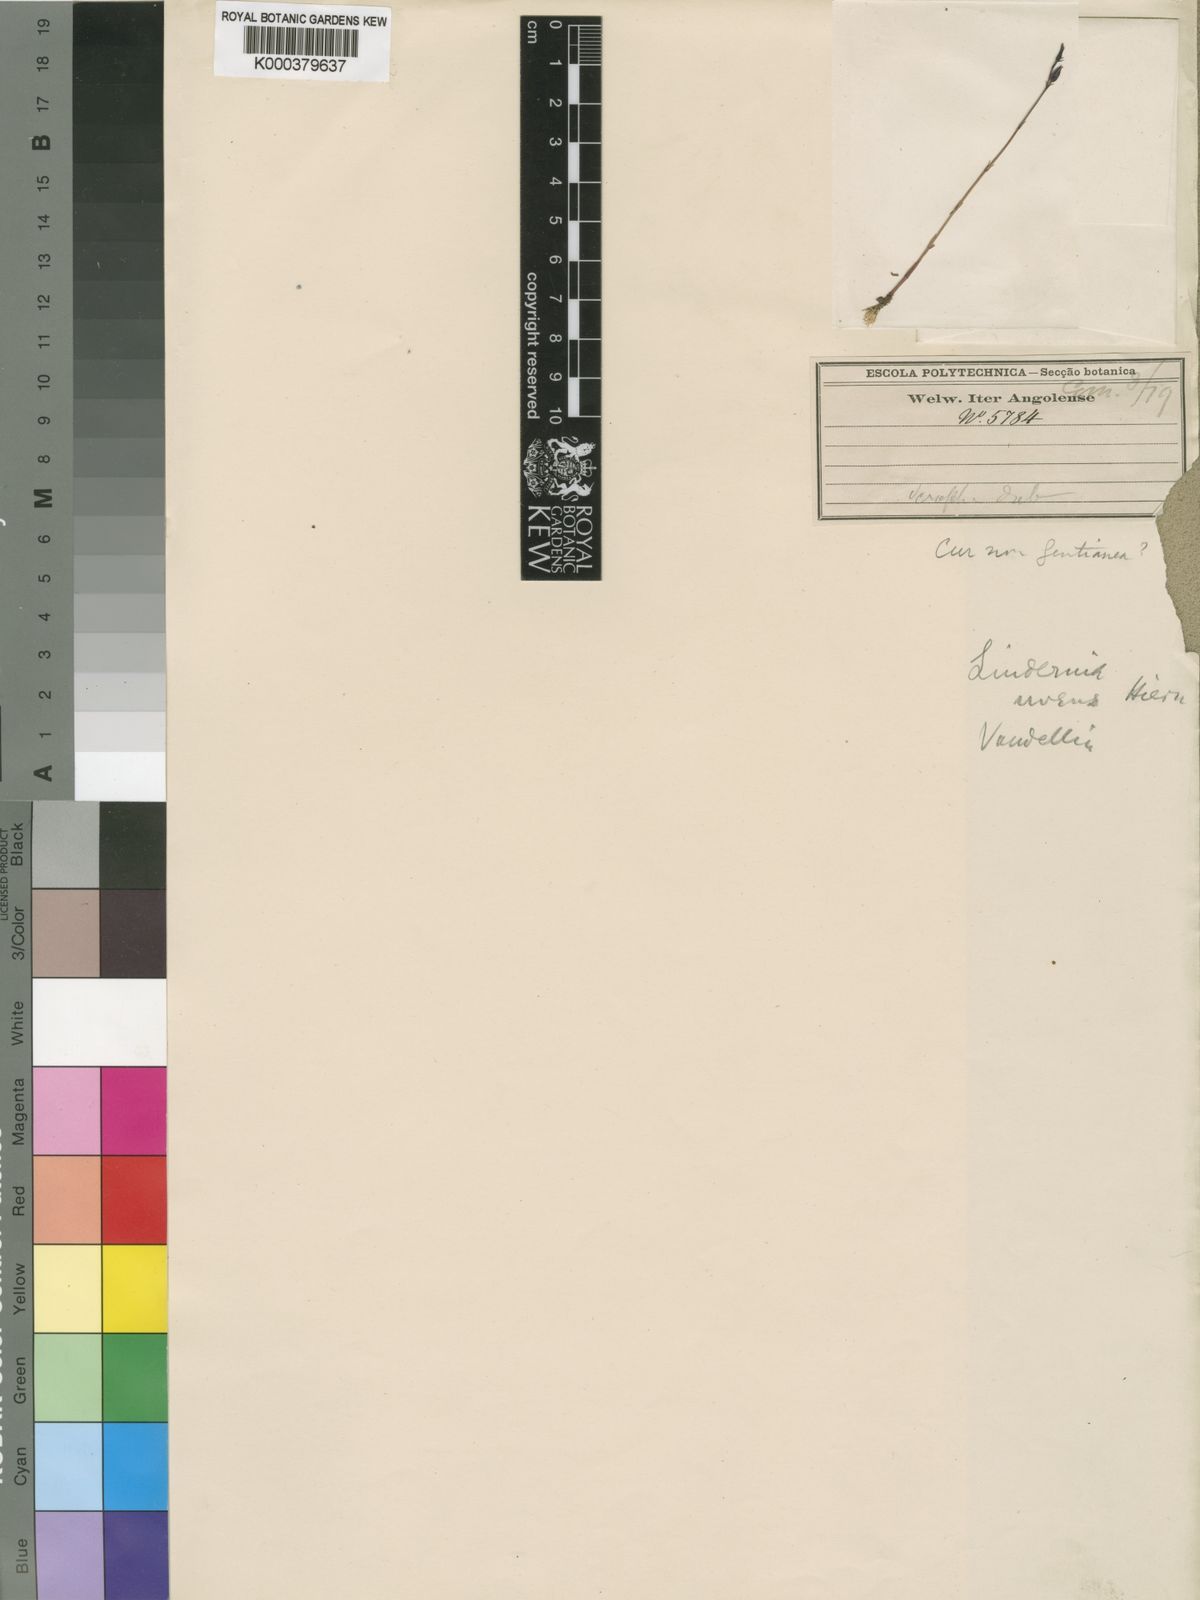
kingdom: Plantae
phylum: Tracheophyta
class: Magnoliopsida
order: Lamiales
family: Linderniaceae
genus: Crepidorhopalon
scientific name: Crepidorhopalon uvens
